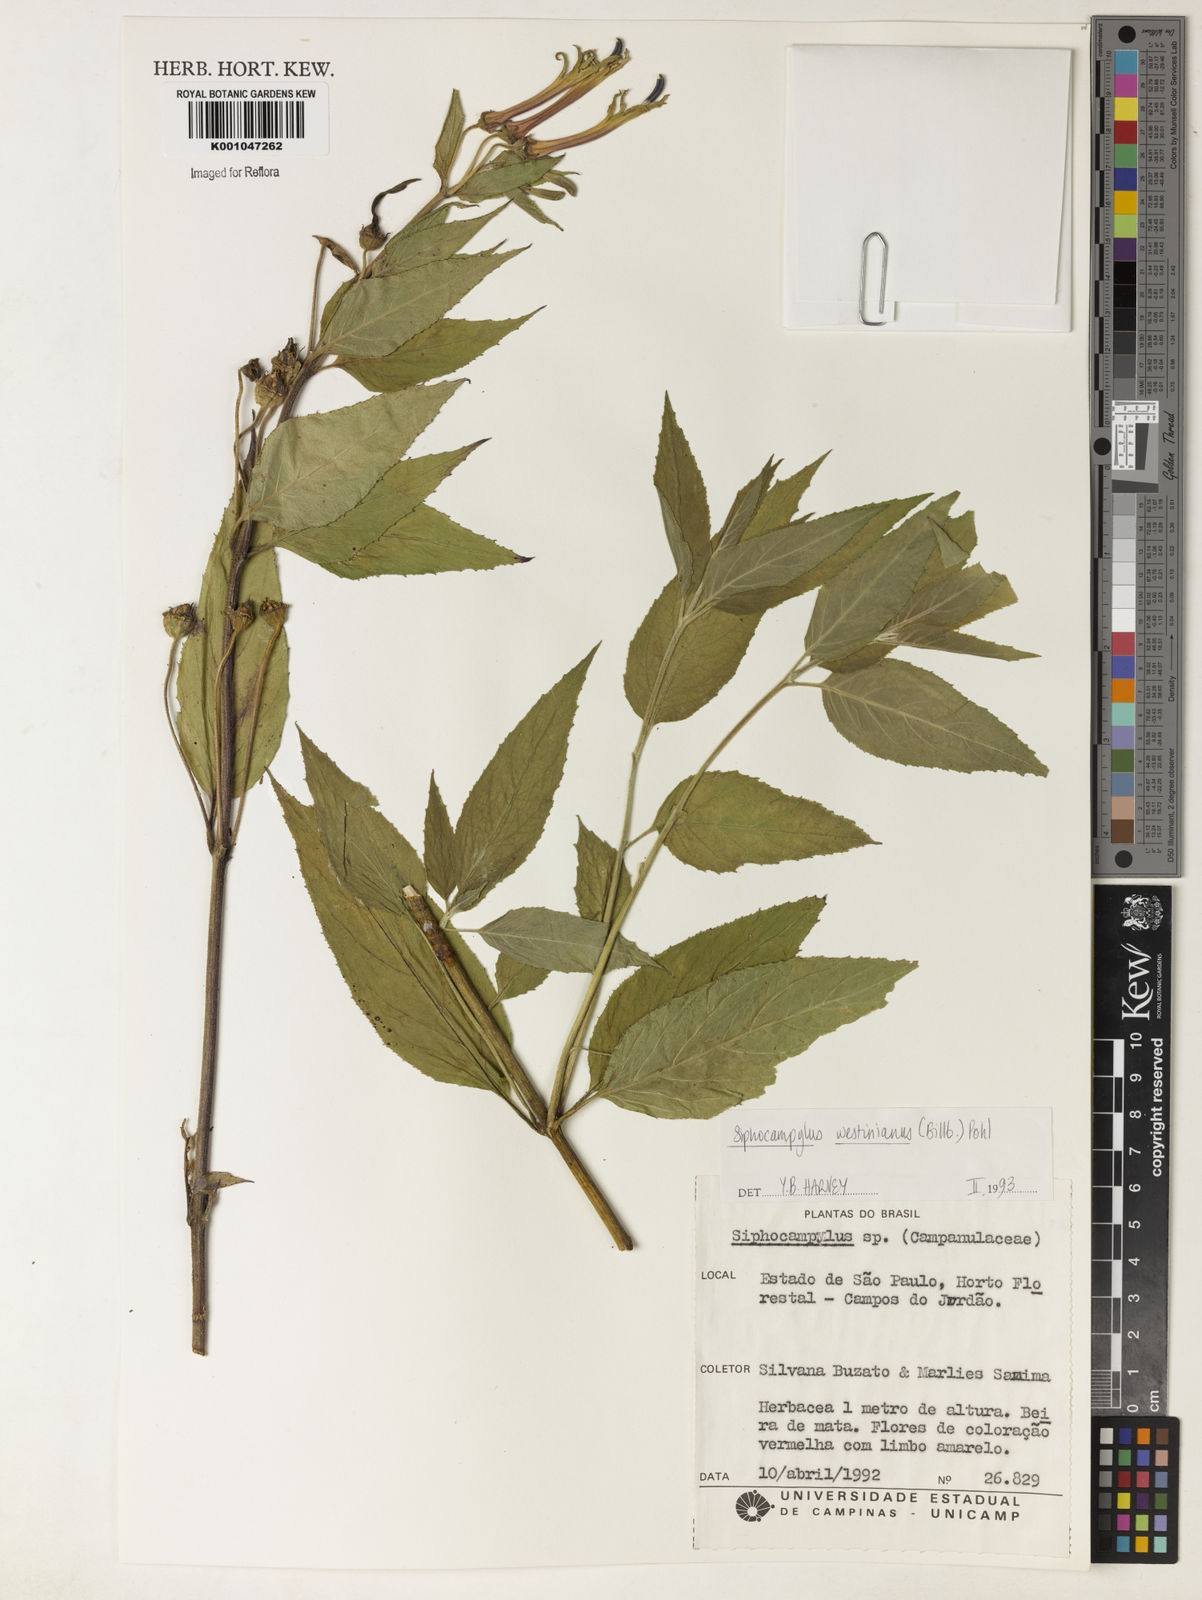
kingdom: Plantae
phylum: Tracheophyta
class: Magnoliopsida
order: Asterales
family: Campanulaceae
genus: Siphocampylus
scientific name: Siphocampylus westinianus
